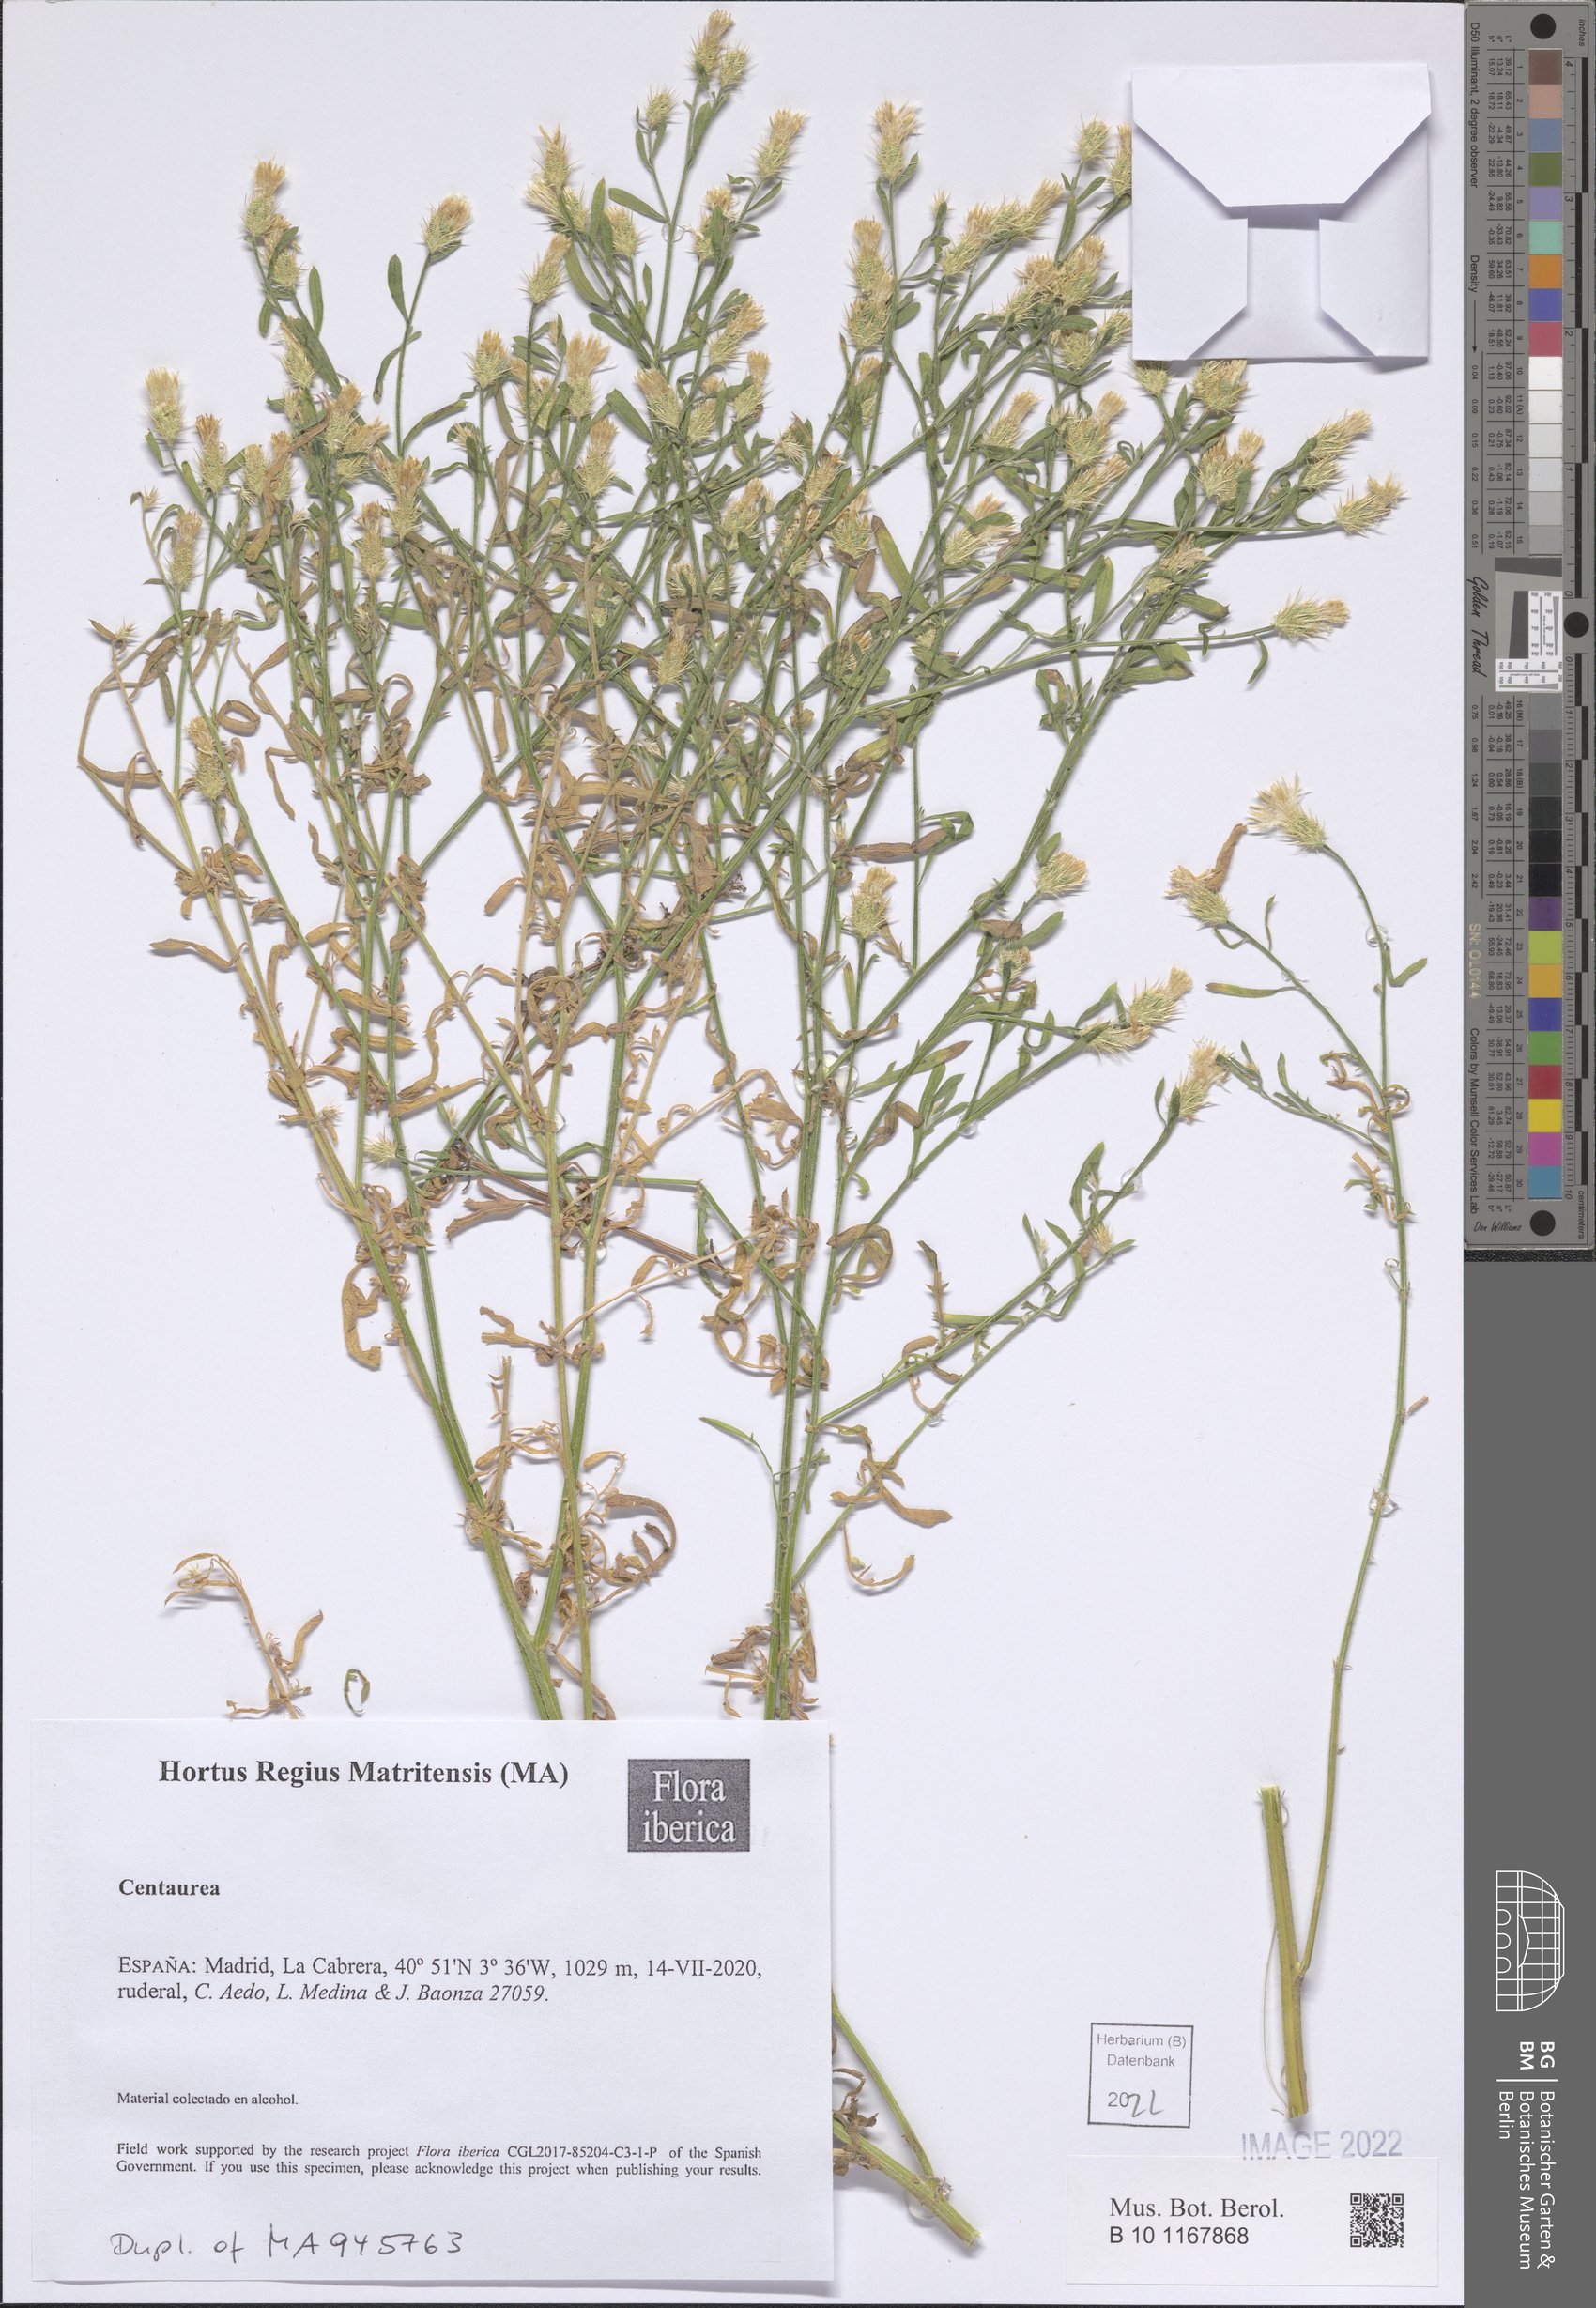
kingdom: Plantae
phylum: Tracheophyta
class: Magnoliopsida
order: Asterales
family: Asteraceae
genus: Centaurea
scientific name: Centaurea
